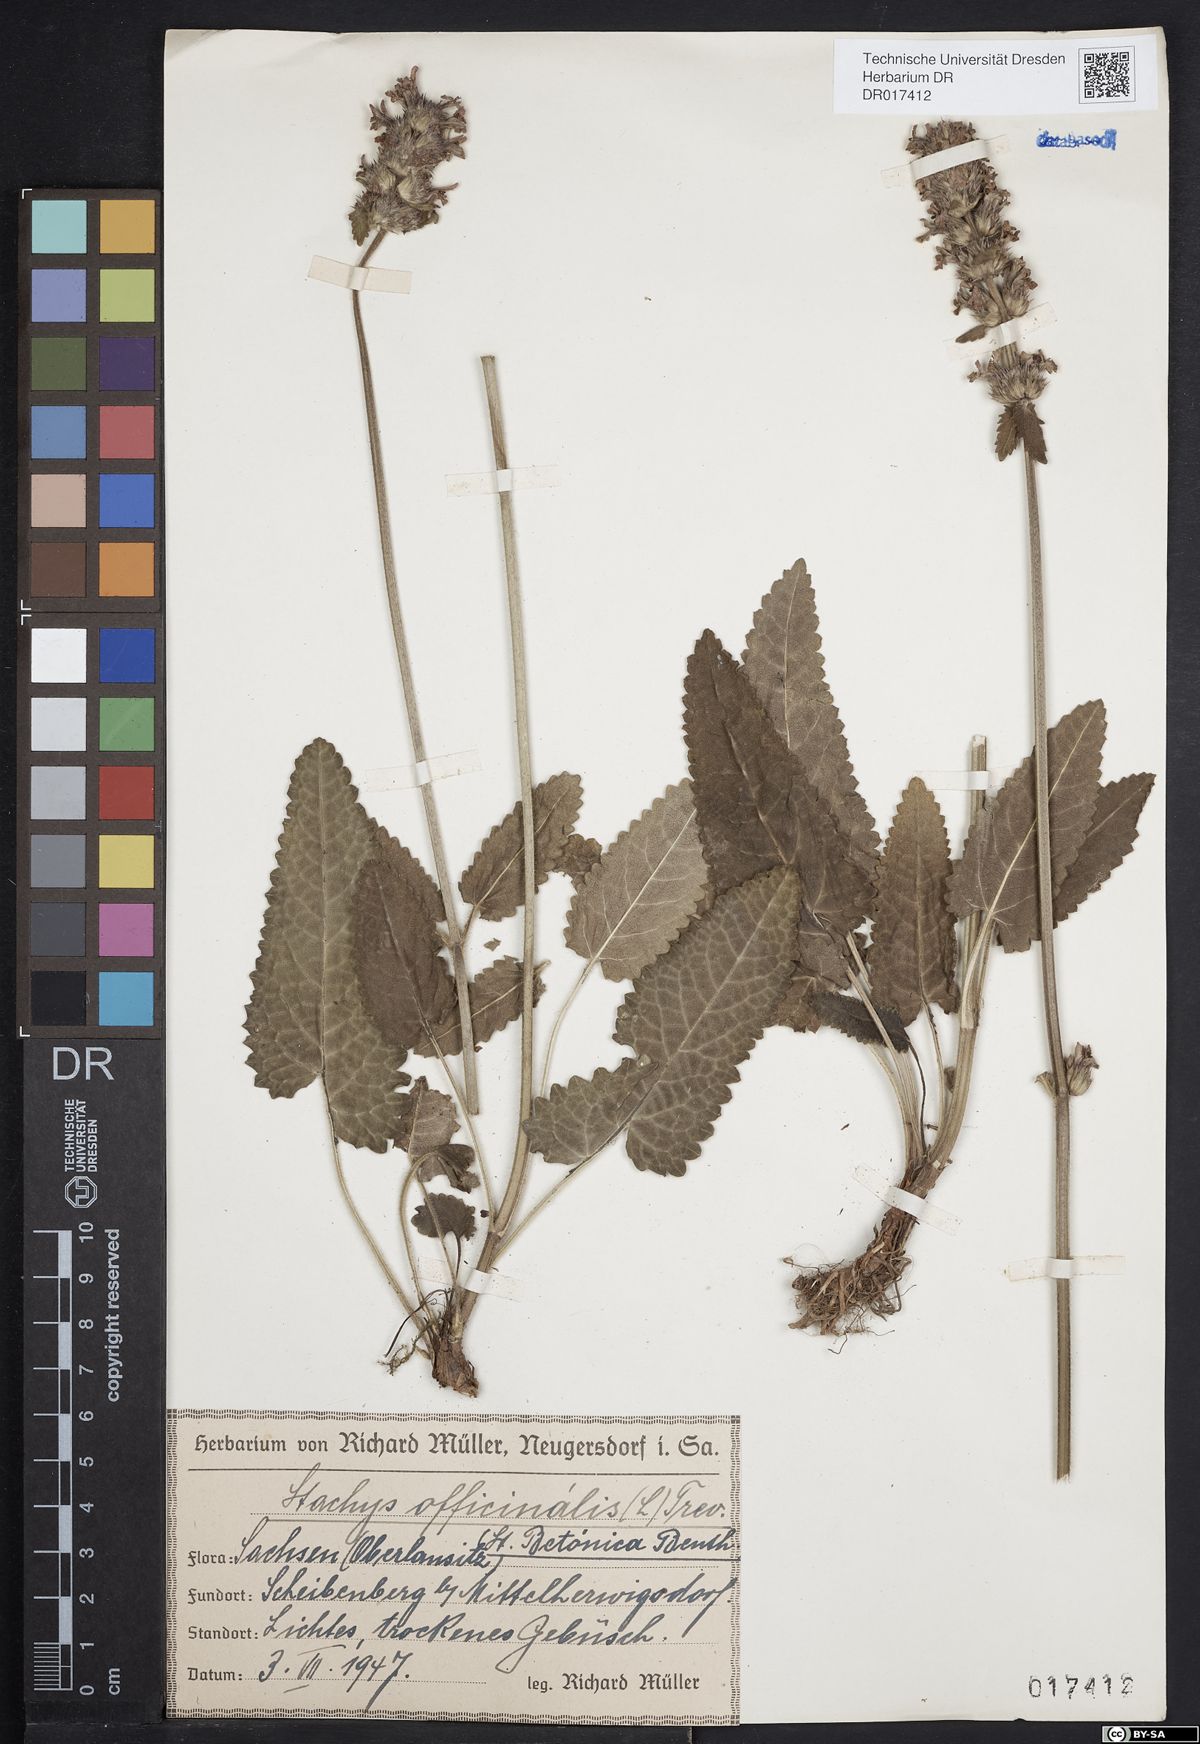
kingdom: Plantae
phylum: Tracheophyta
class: Magnoliopsida
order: Lamiales
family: Lamiaceae
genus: Betonica
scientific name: Betonica officinalis
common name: Bishop's-wort
